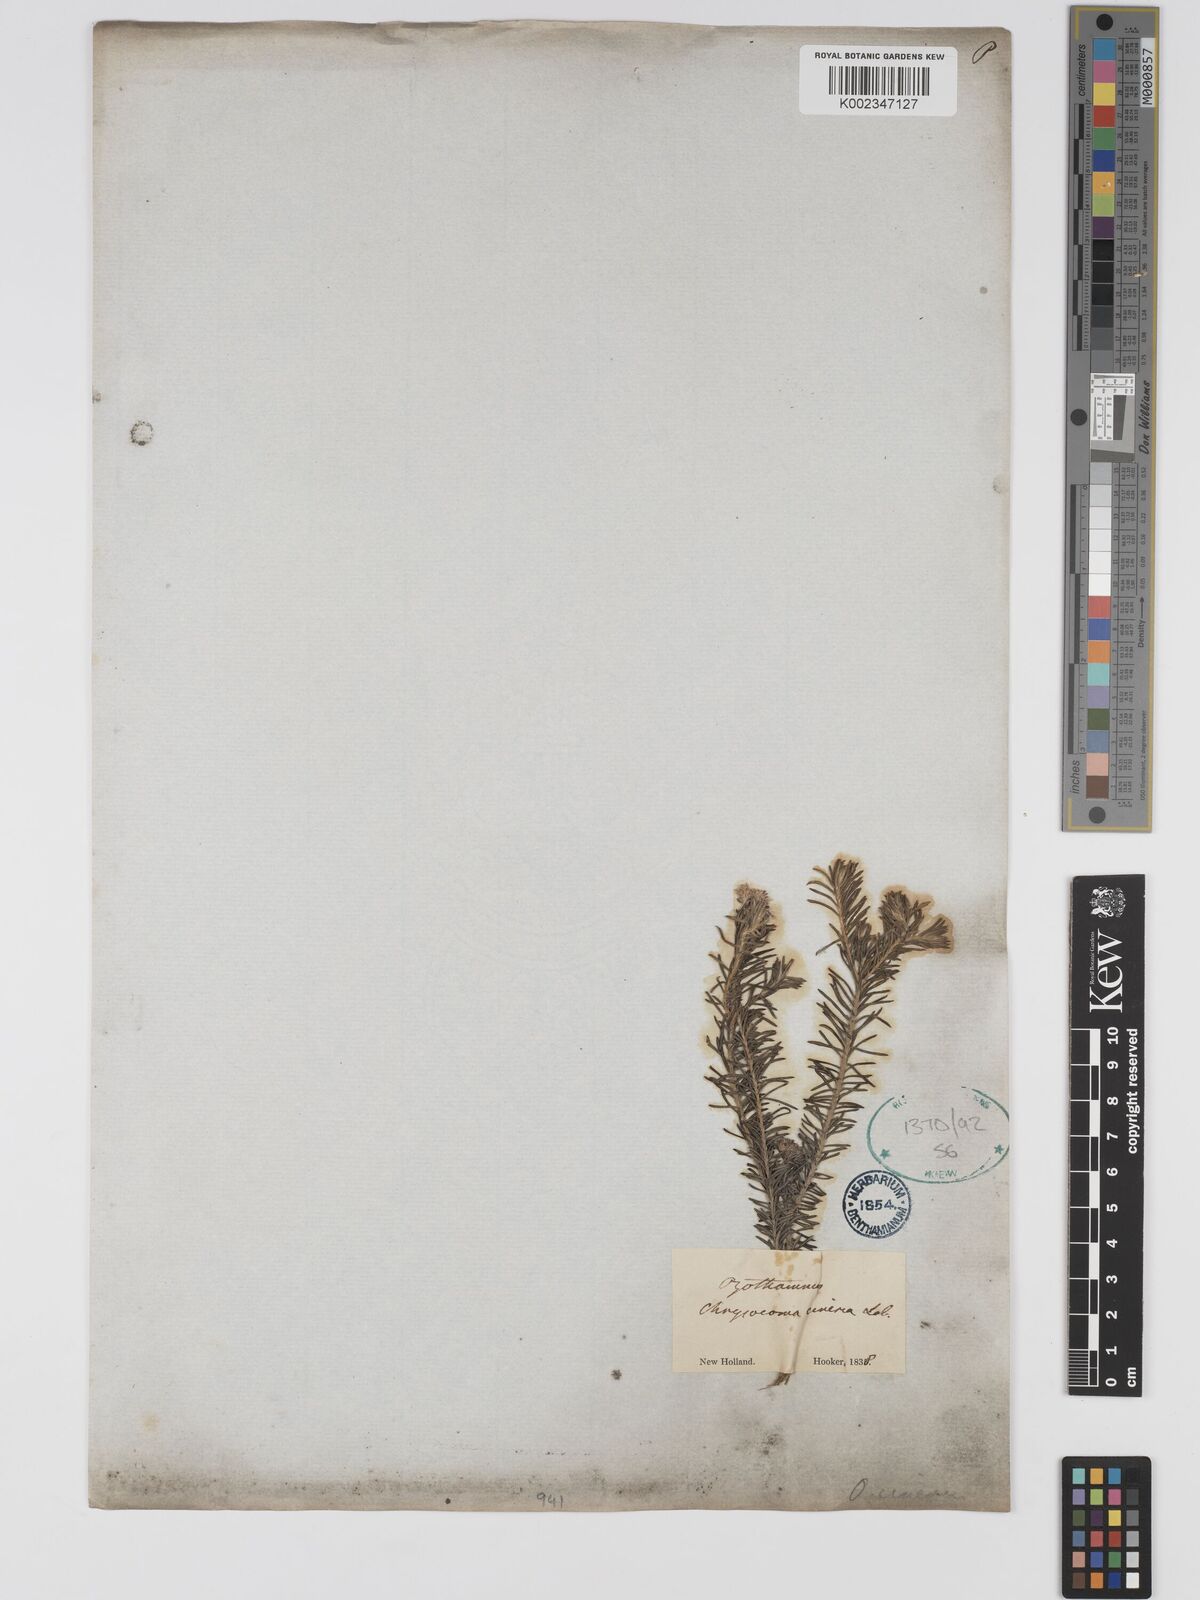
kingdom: Plantae
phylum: Tracheophyta
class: Magnoliopsida
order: Asterales
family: Asteraceae
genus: Ozothamnus
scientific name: Ozothamnus cinereus
